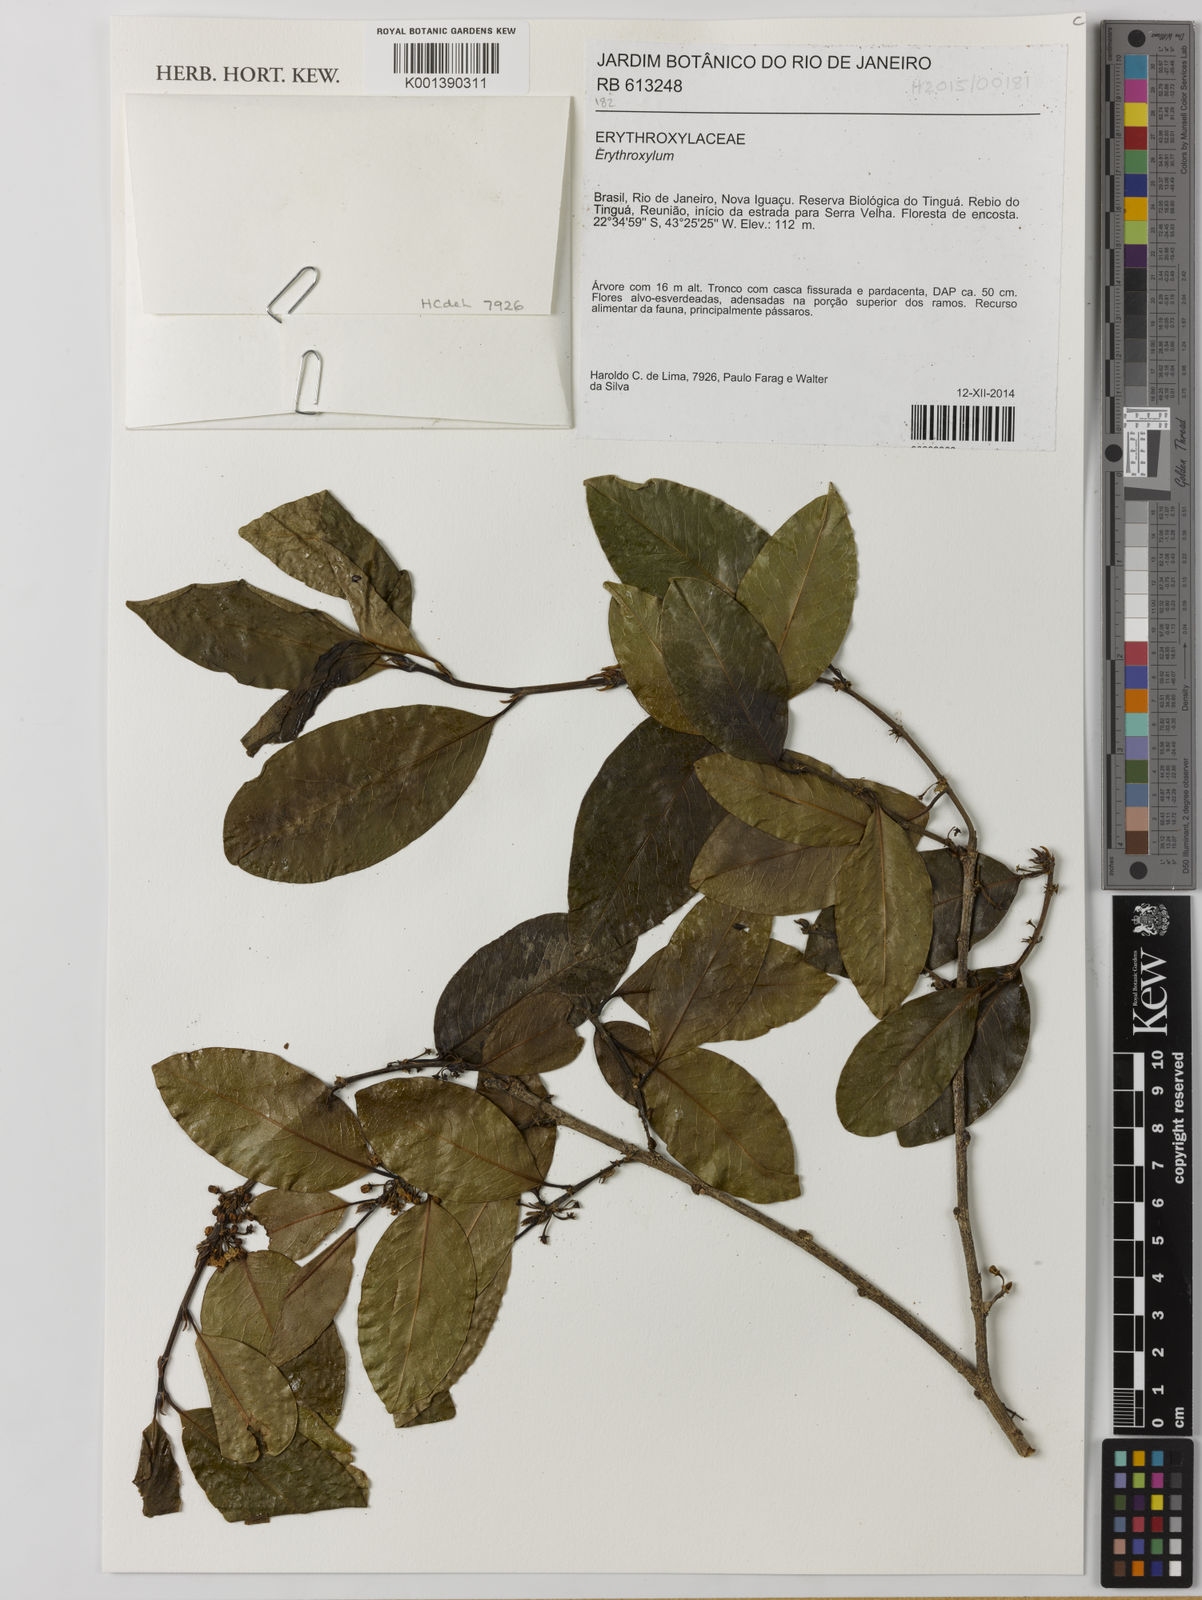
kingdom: Plantae
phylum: Tracheophyta
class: Magnoliopsida
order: Malpighiales
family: Erythroxylaceae
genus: Erythroxylum
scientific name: Erythroxylum
